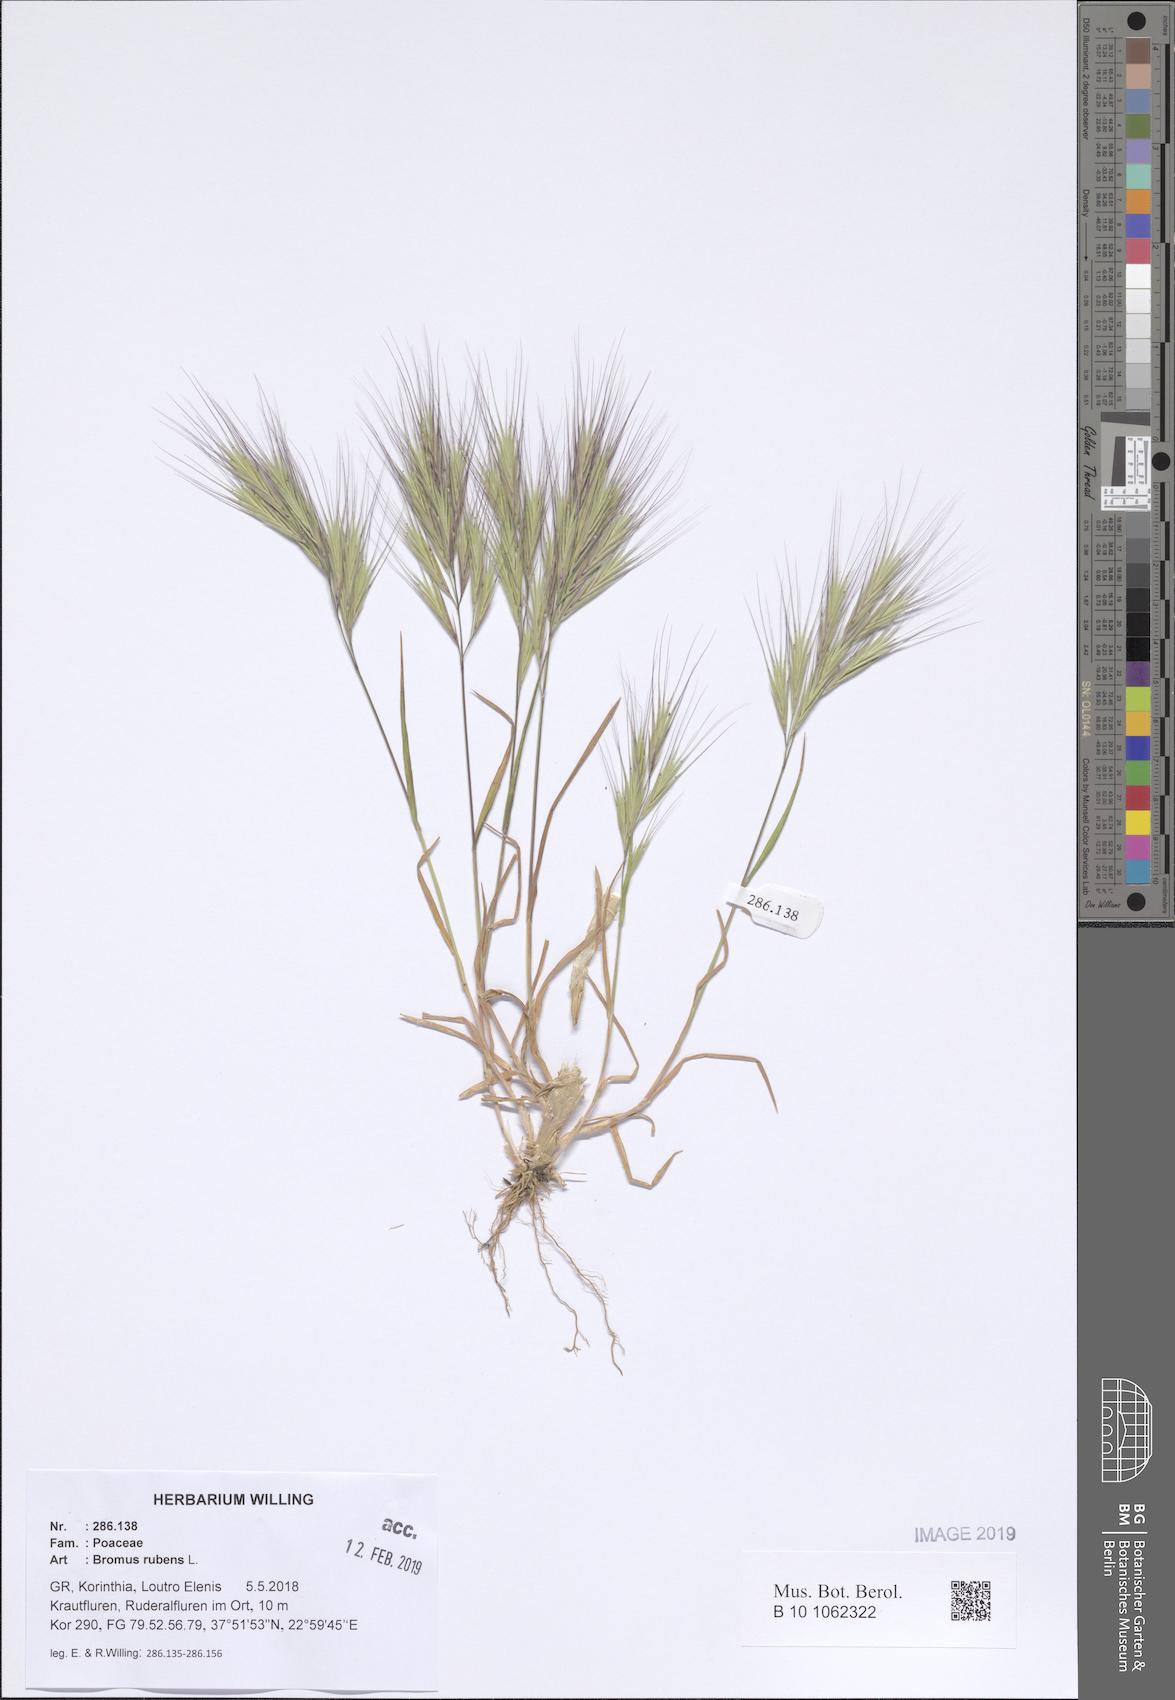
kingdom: Plantae
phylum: Tracheophyta
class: Liliopsida
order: Poales
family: Poaceae
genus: Bromus
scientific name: Bromus rubens
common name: Red brome
